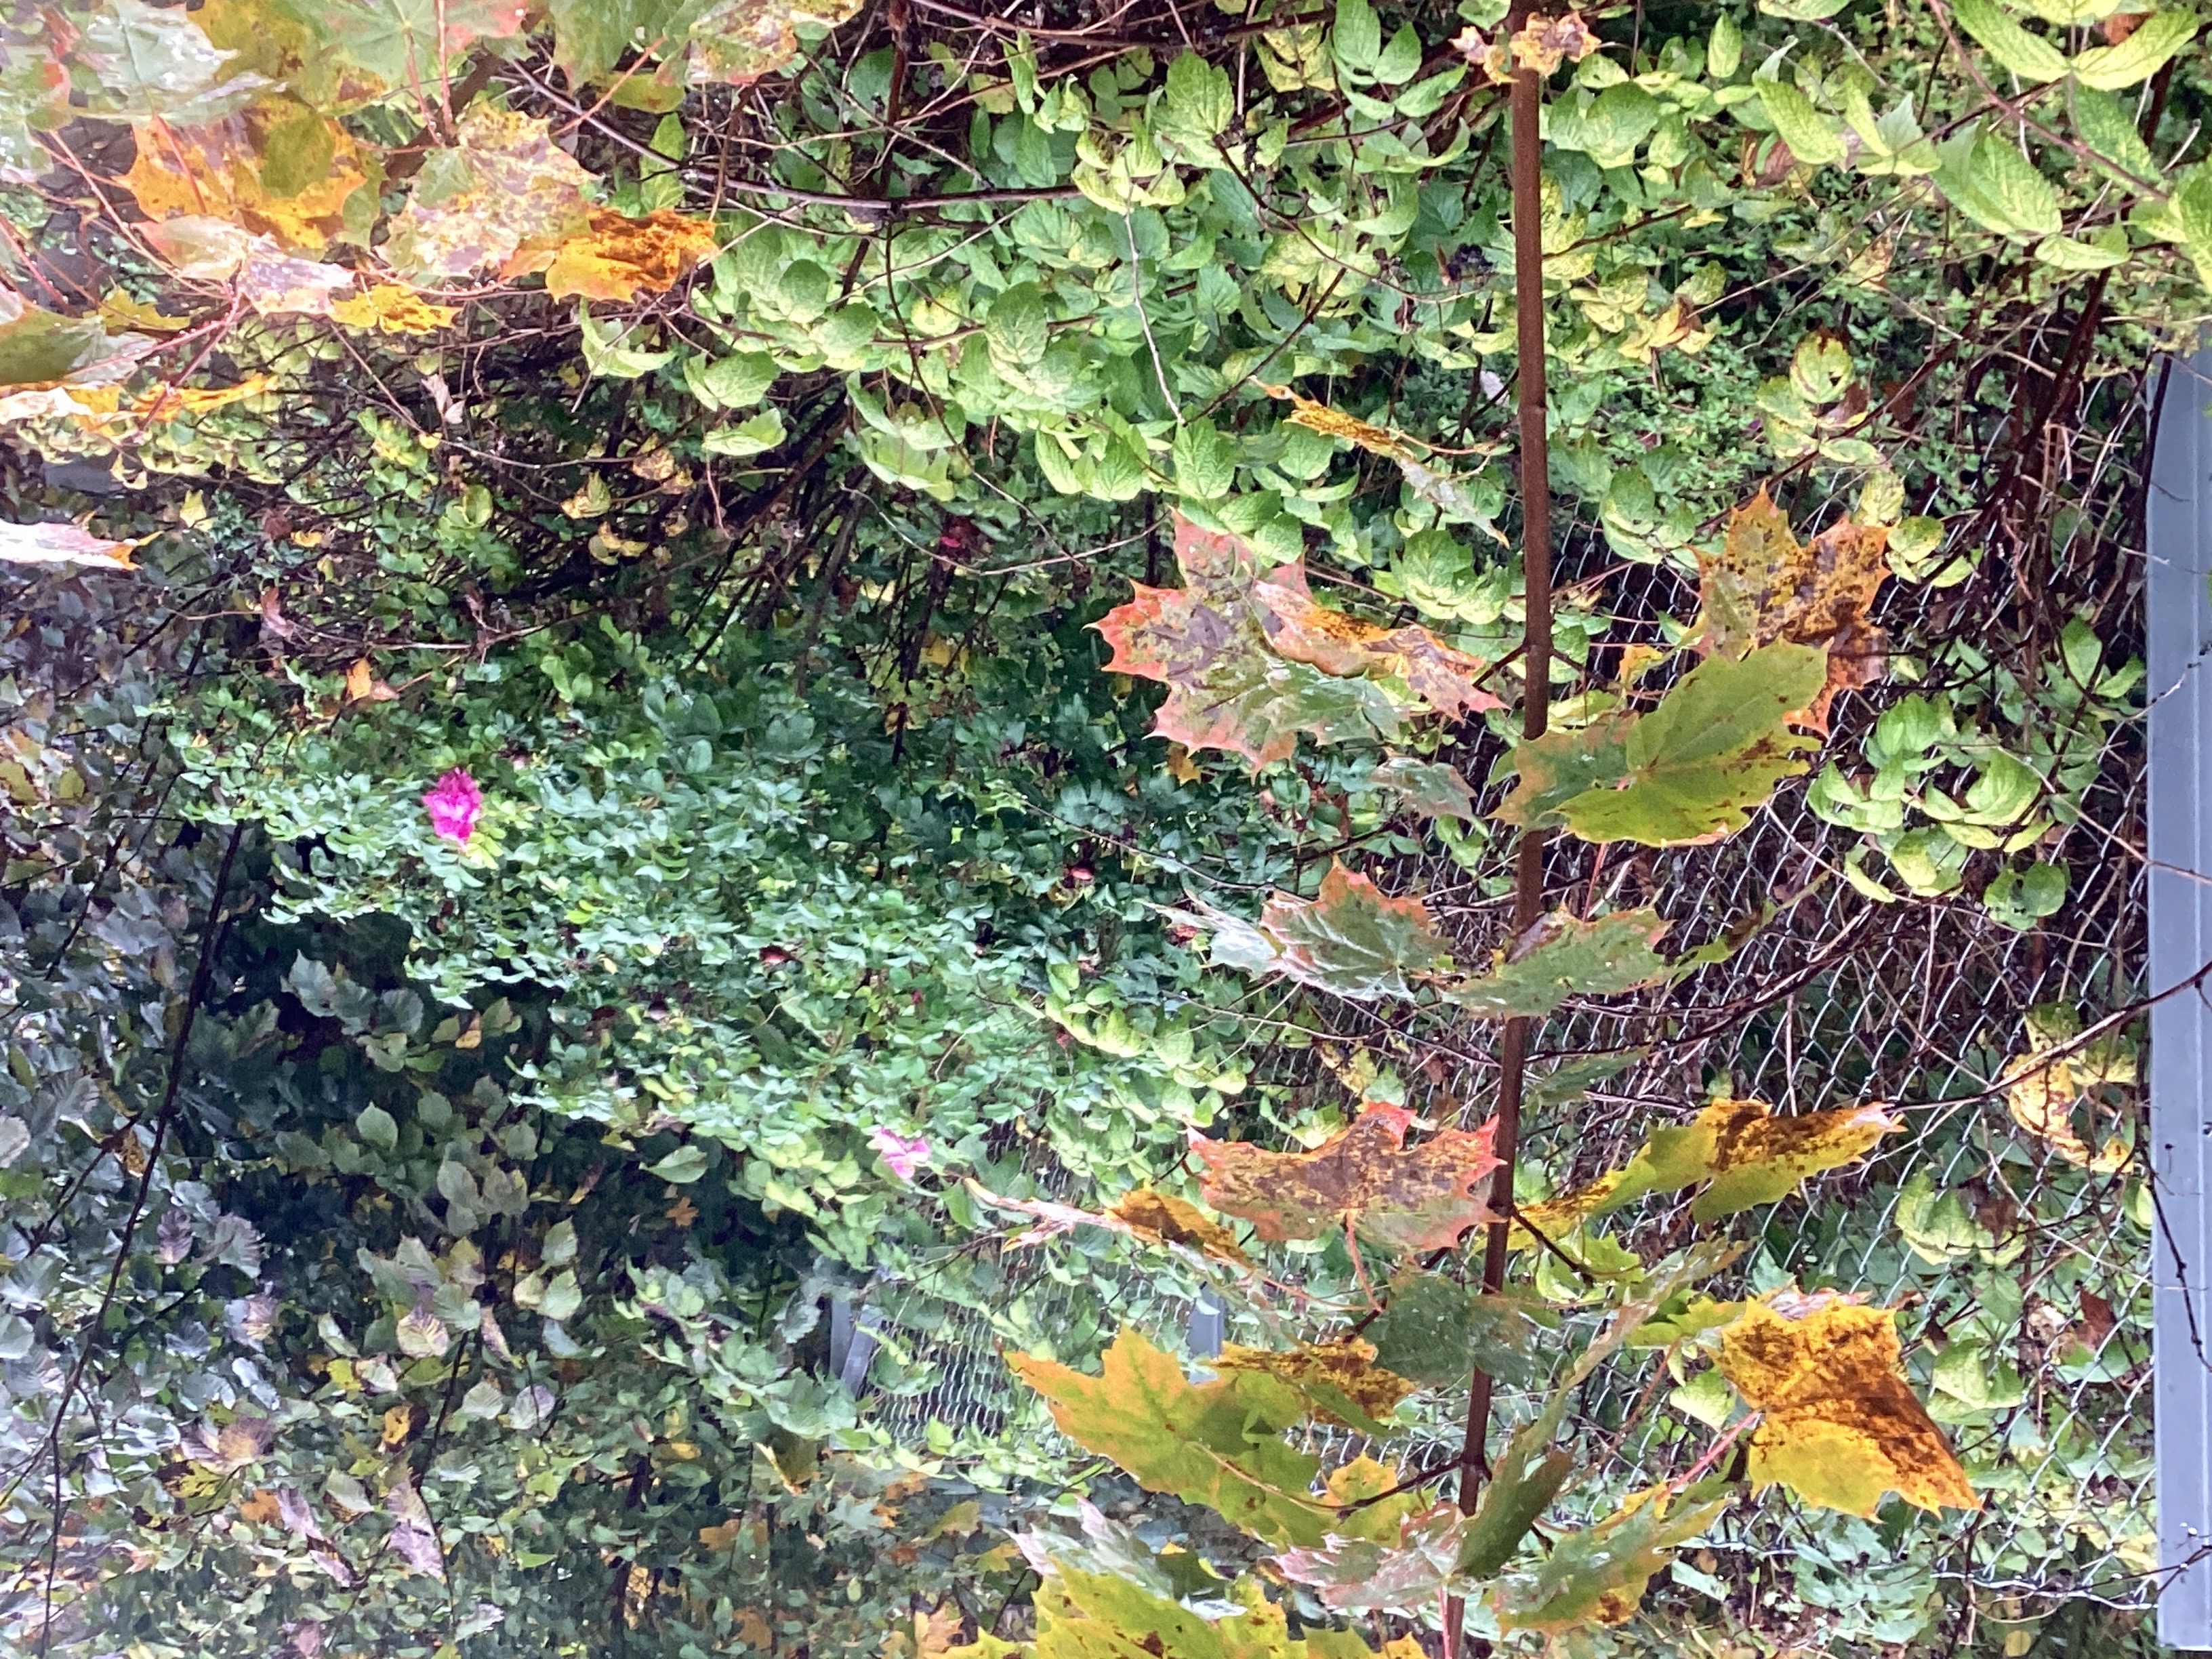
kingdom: Plantae
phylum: Tracheophyta
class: Magnoliopsida
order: Rosales
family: Rosaceae
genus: Rosa
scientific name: Rosa rugosa
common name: rynkerose
